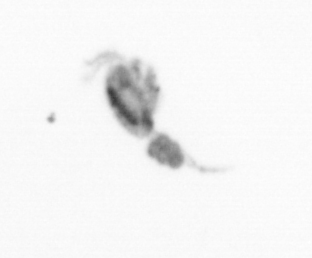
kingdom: Animalia
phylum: Arthropoda
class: Copepoda
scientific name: Copepoda
